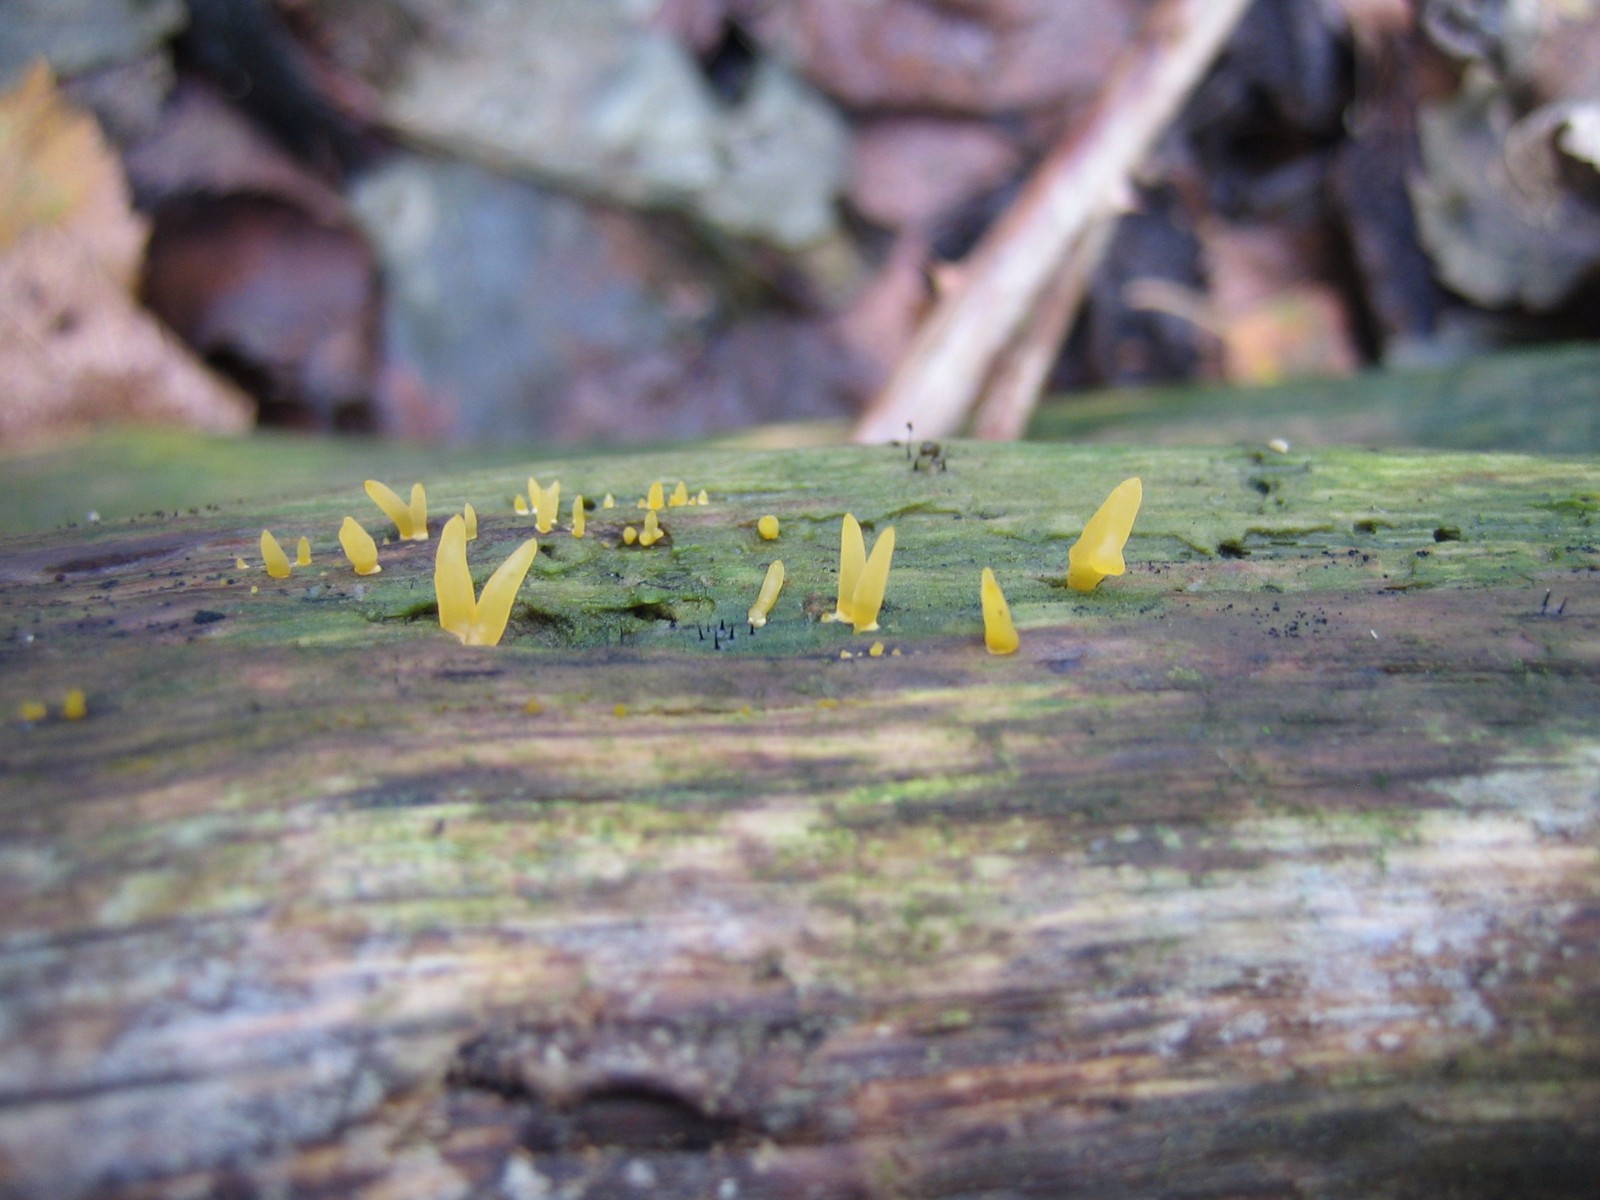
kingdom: Fungi
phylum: Basidiomycota
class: Dacrymycetes
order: Dacrymycetales
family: Dacrymycetaceae
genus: Calocera
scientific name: Calocera cornea
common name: liden guldgaffel
